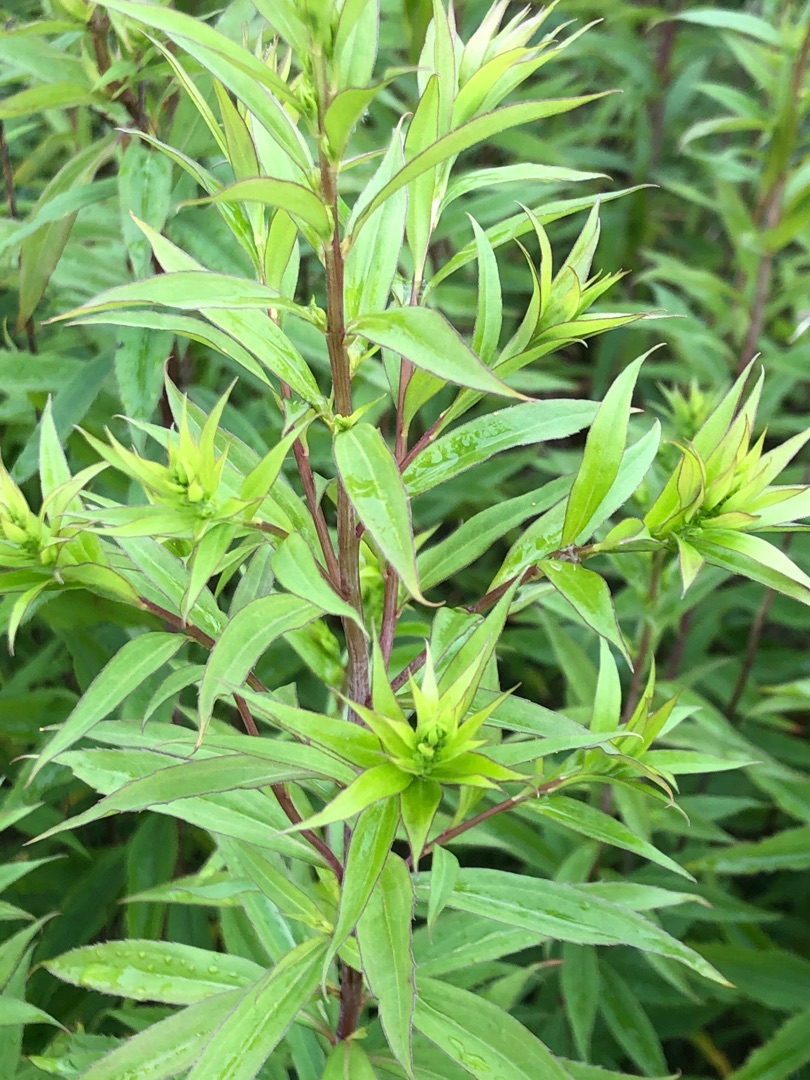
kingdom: Plantae
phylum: Tracheophyta
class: Magnoliopsida
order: Asterales
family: Asteraceae
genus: Solidago
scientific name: Solidago gigantea
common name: Sildig gyldenris
